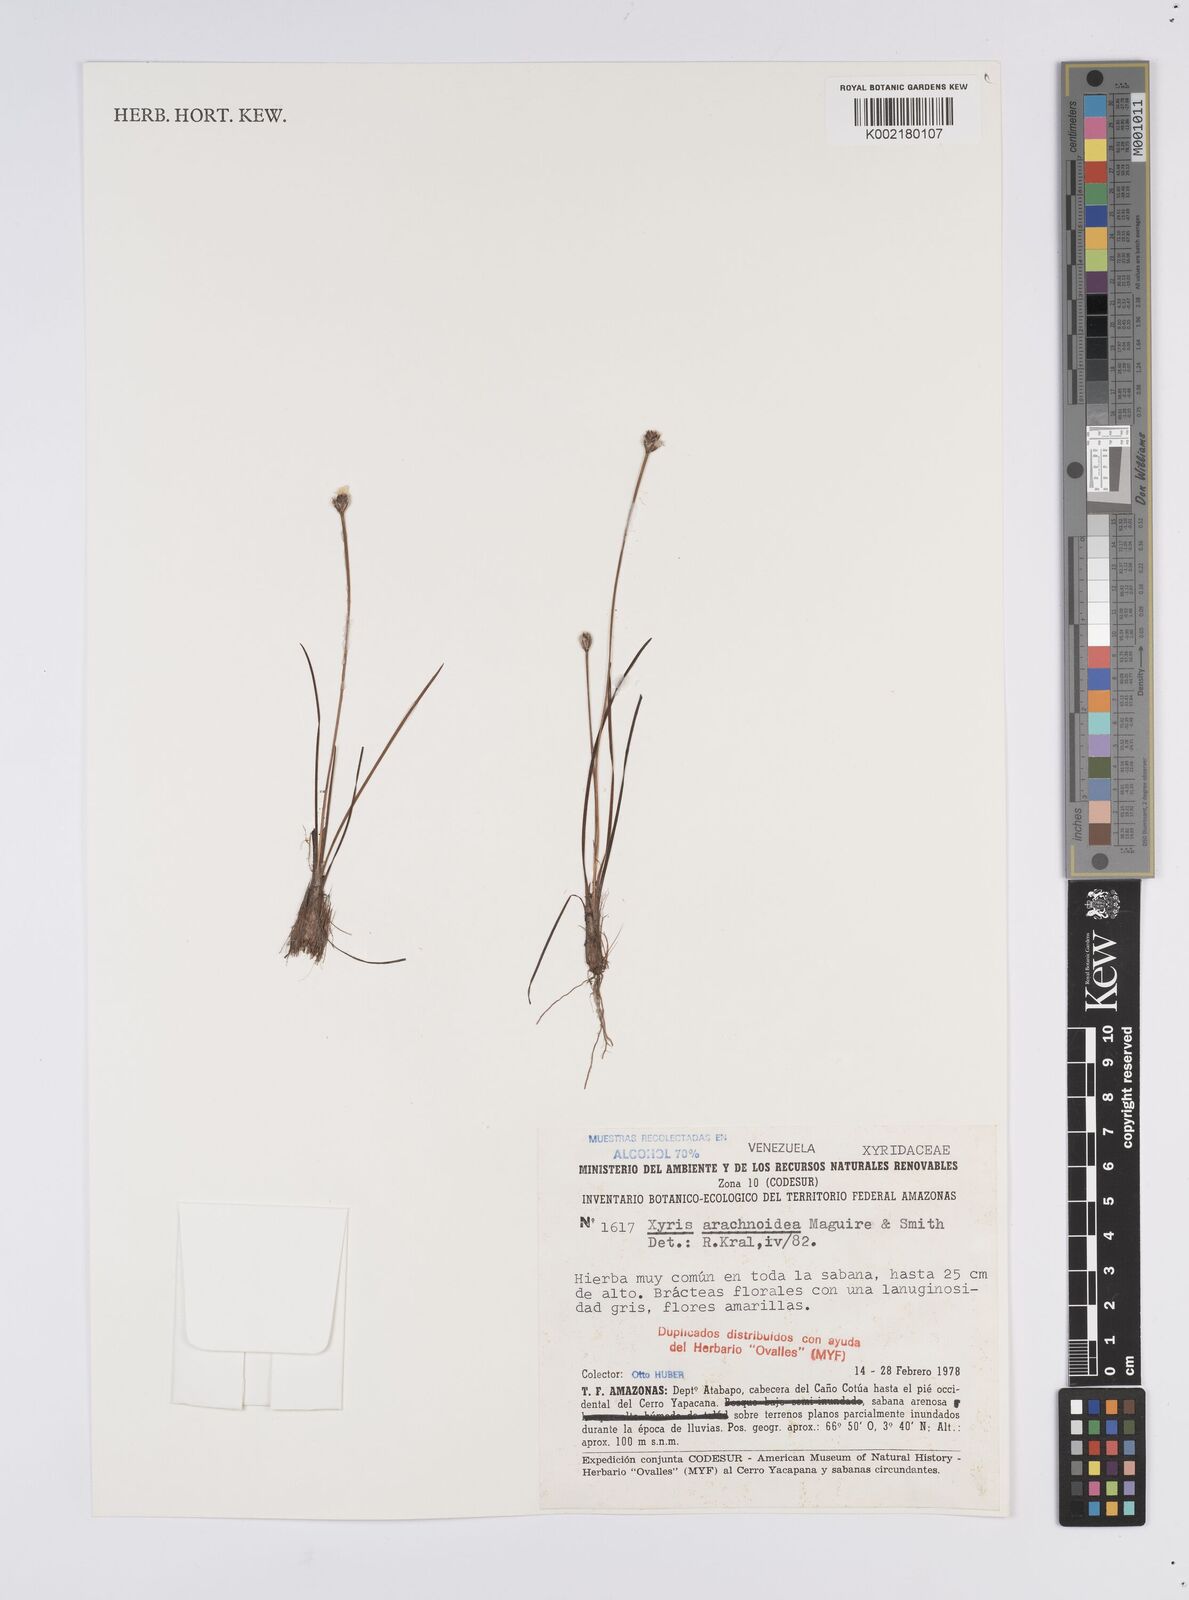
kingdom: Plantae
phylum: Tracheophyta
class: Liliopsida
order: Poales
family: Xyridaceae
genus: Xyris
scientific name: Xyris arachnoidea
